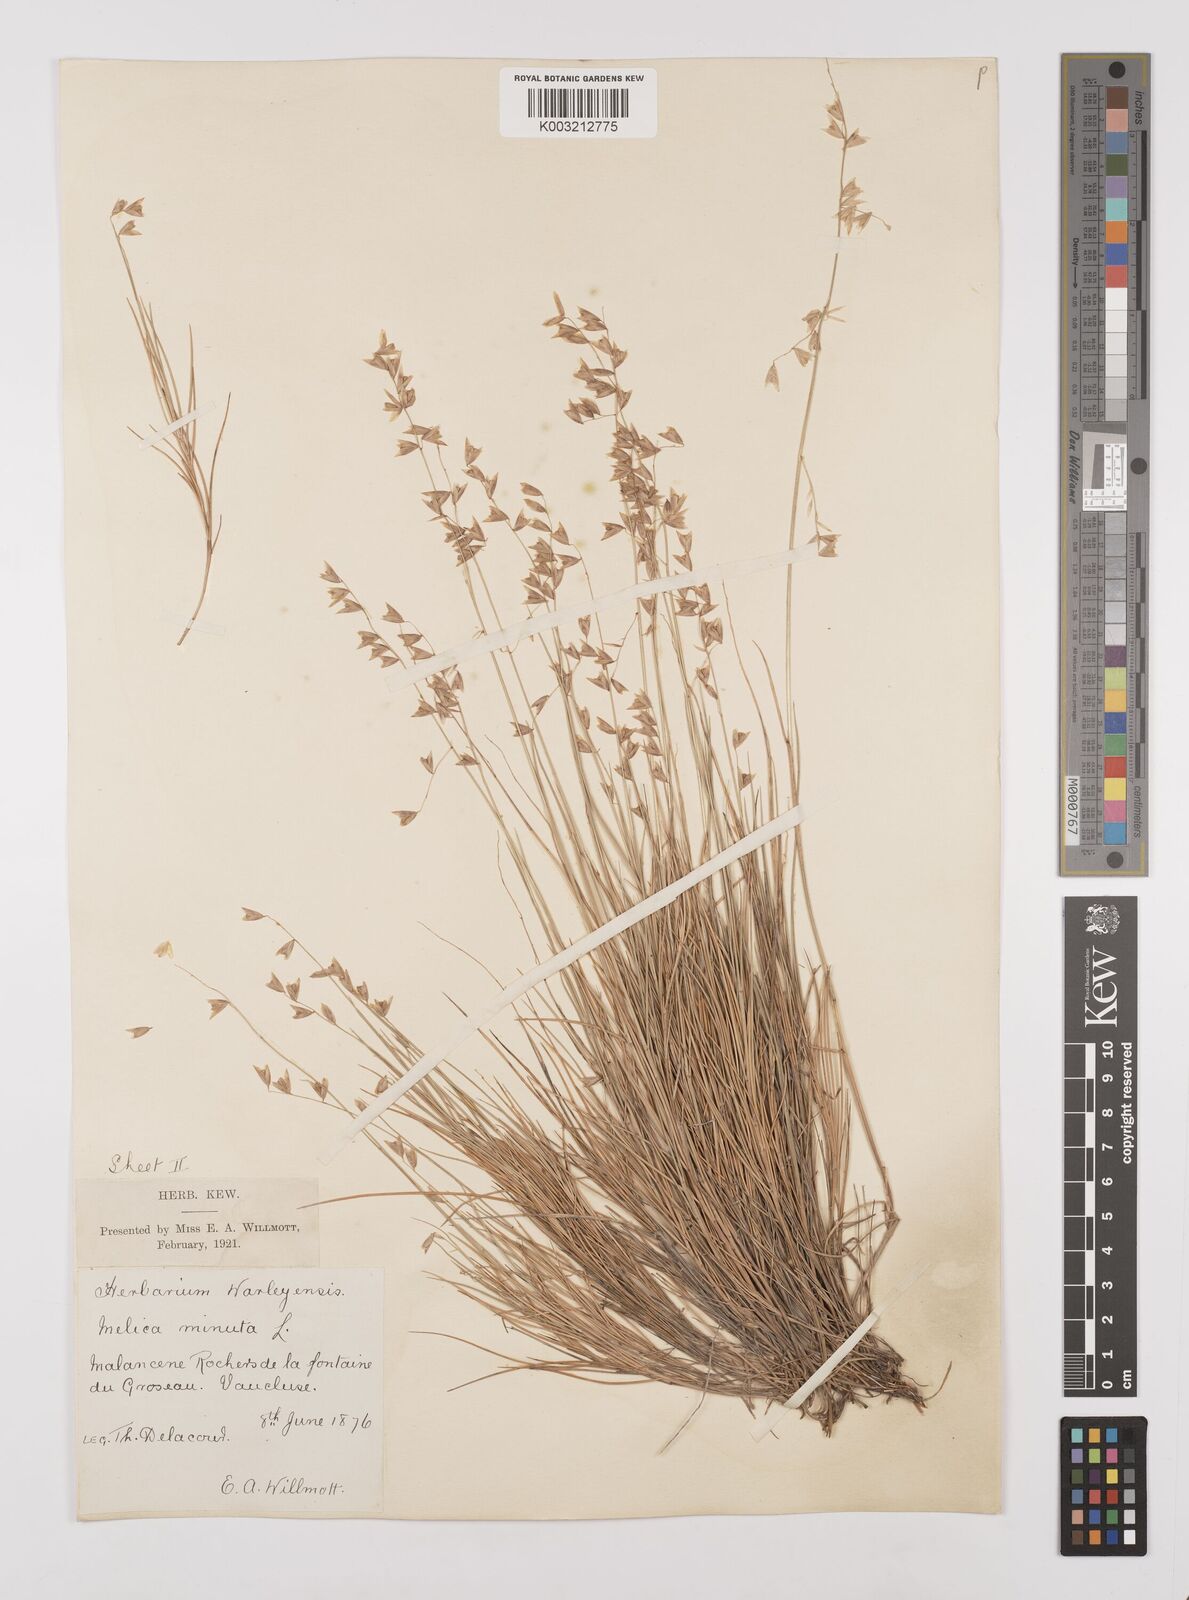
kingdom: Plantae
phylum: Tracheophyta
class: Liliopsida
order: Poales
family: Poaceae
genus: Melica
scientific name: Melica minuta
